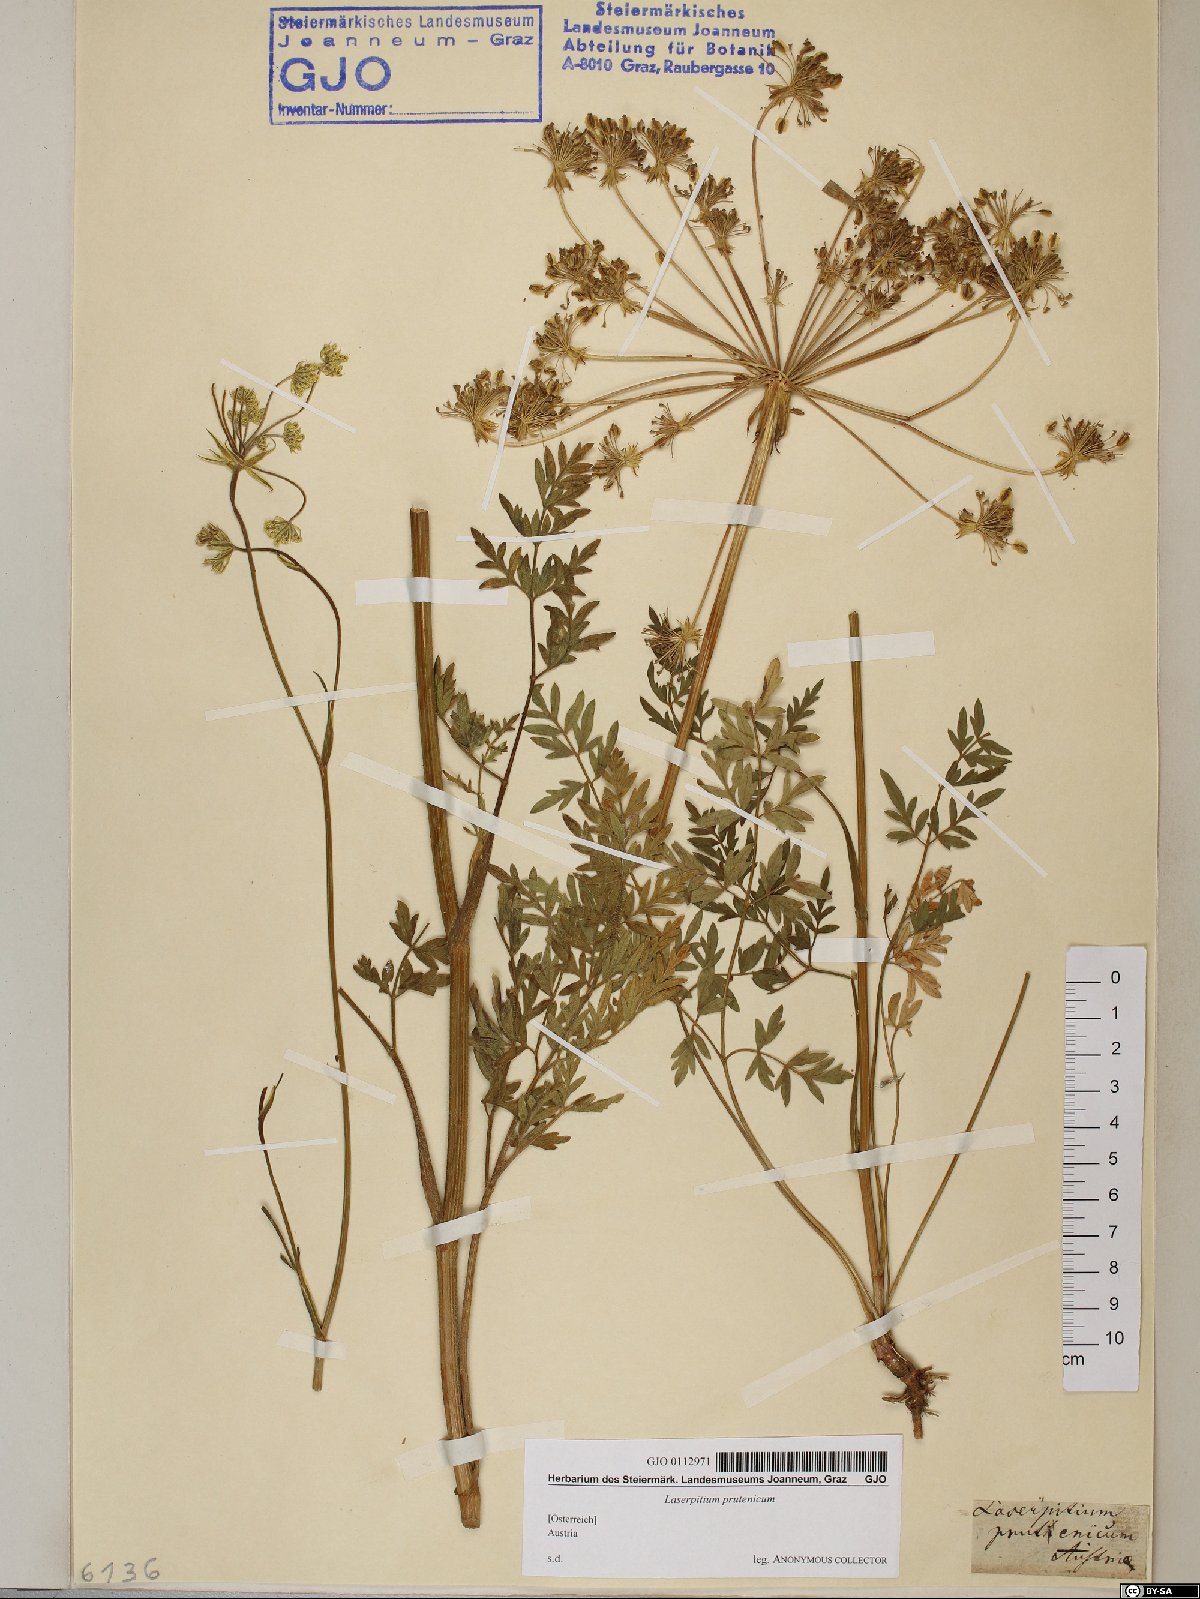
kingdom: Plantae
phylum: Tracheophyta
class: Magnoliopsida
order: Apiales
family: Apiaceae
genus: Silphiodaucus
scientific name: Silphiodaucus prutenicus
